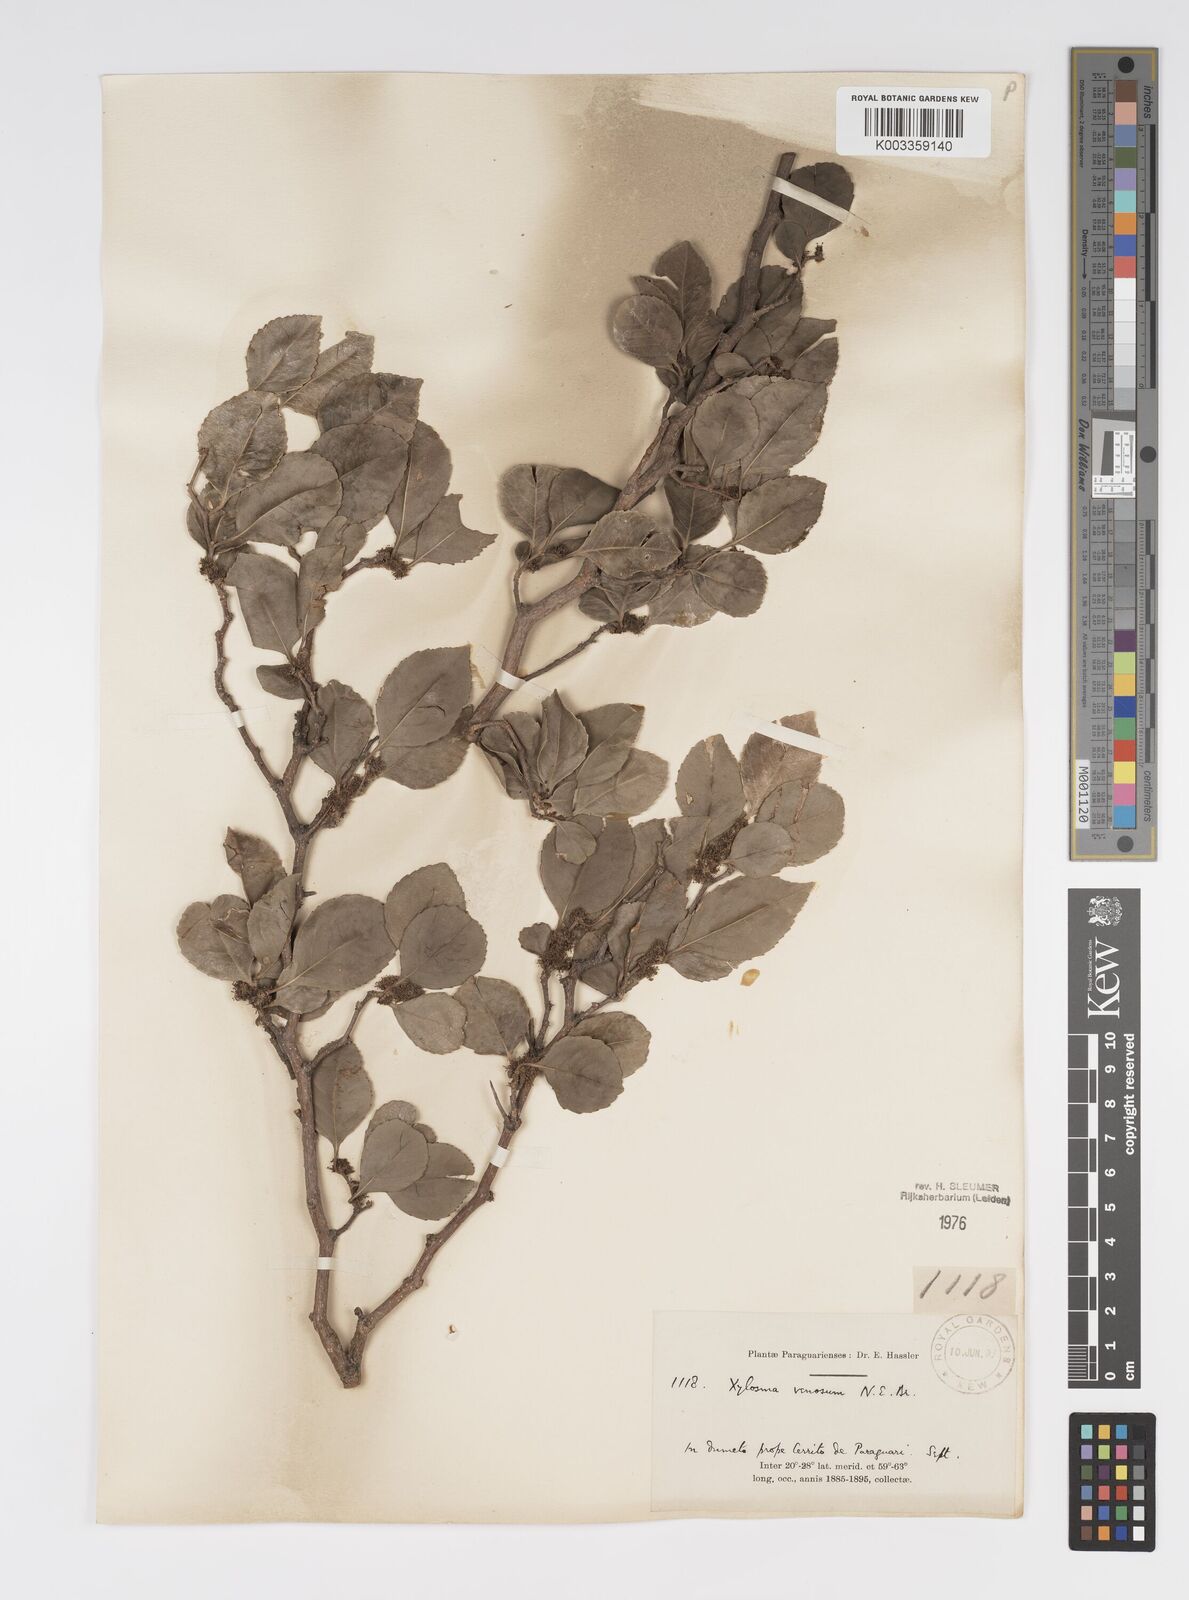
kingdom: Plantae
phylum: Tracheophyta
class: Magnoliopsida
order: Malpighiales
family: Salicaceae
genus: Xylosma
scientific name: Xylosma venosa
